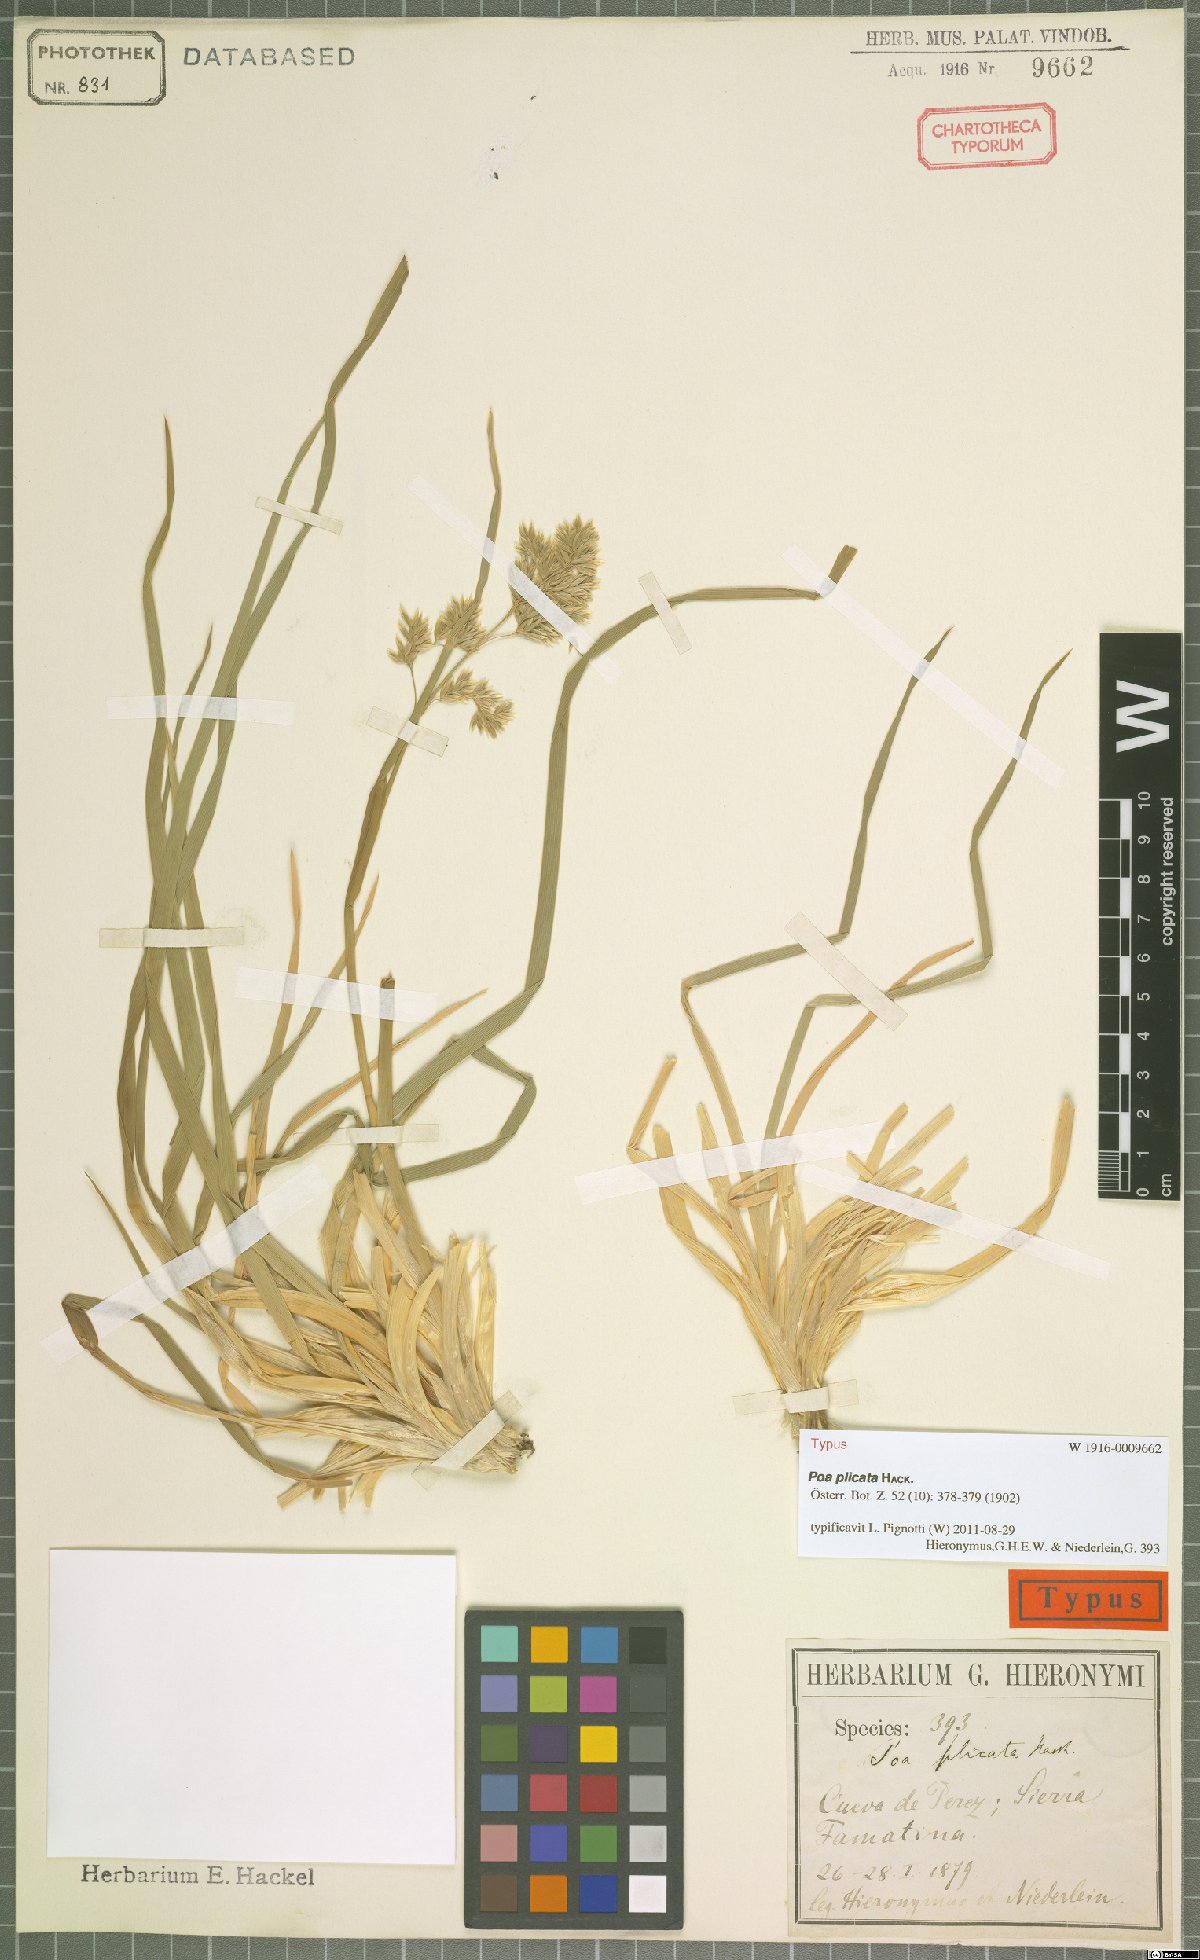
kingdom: Plantae
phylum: Tracheophyta
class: Liliopsida
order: Poales
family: Poaceae
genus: Poa
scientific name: Poa plicata
